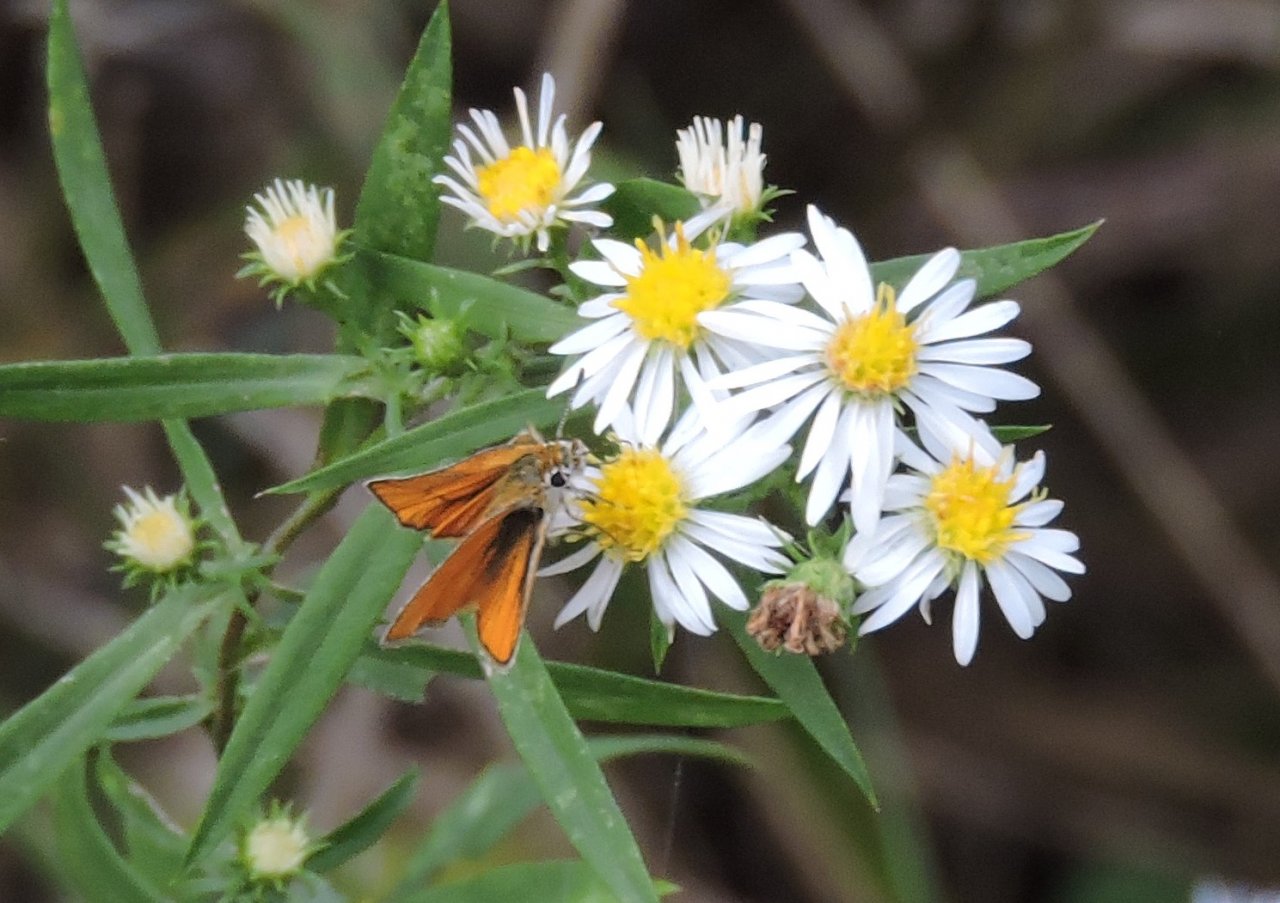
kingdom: Animalia
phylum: Arthropoda
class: Insecta
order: Lepidoptera
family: Hesperiidae
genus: Copaeodes
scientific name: Copaeodes minima
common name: Southern Skipperling
